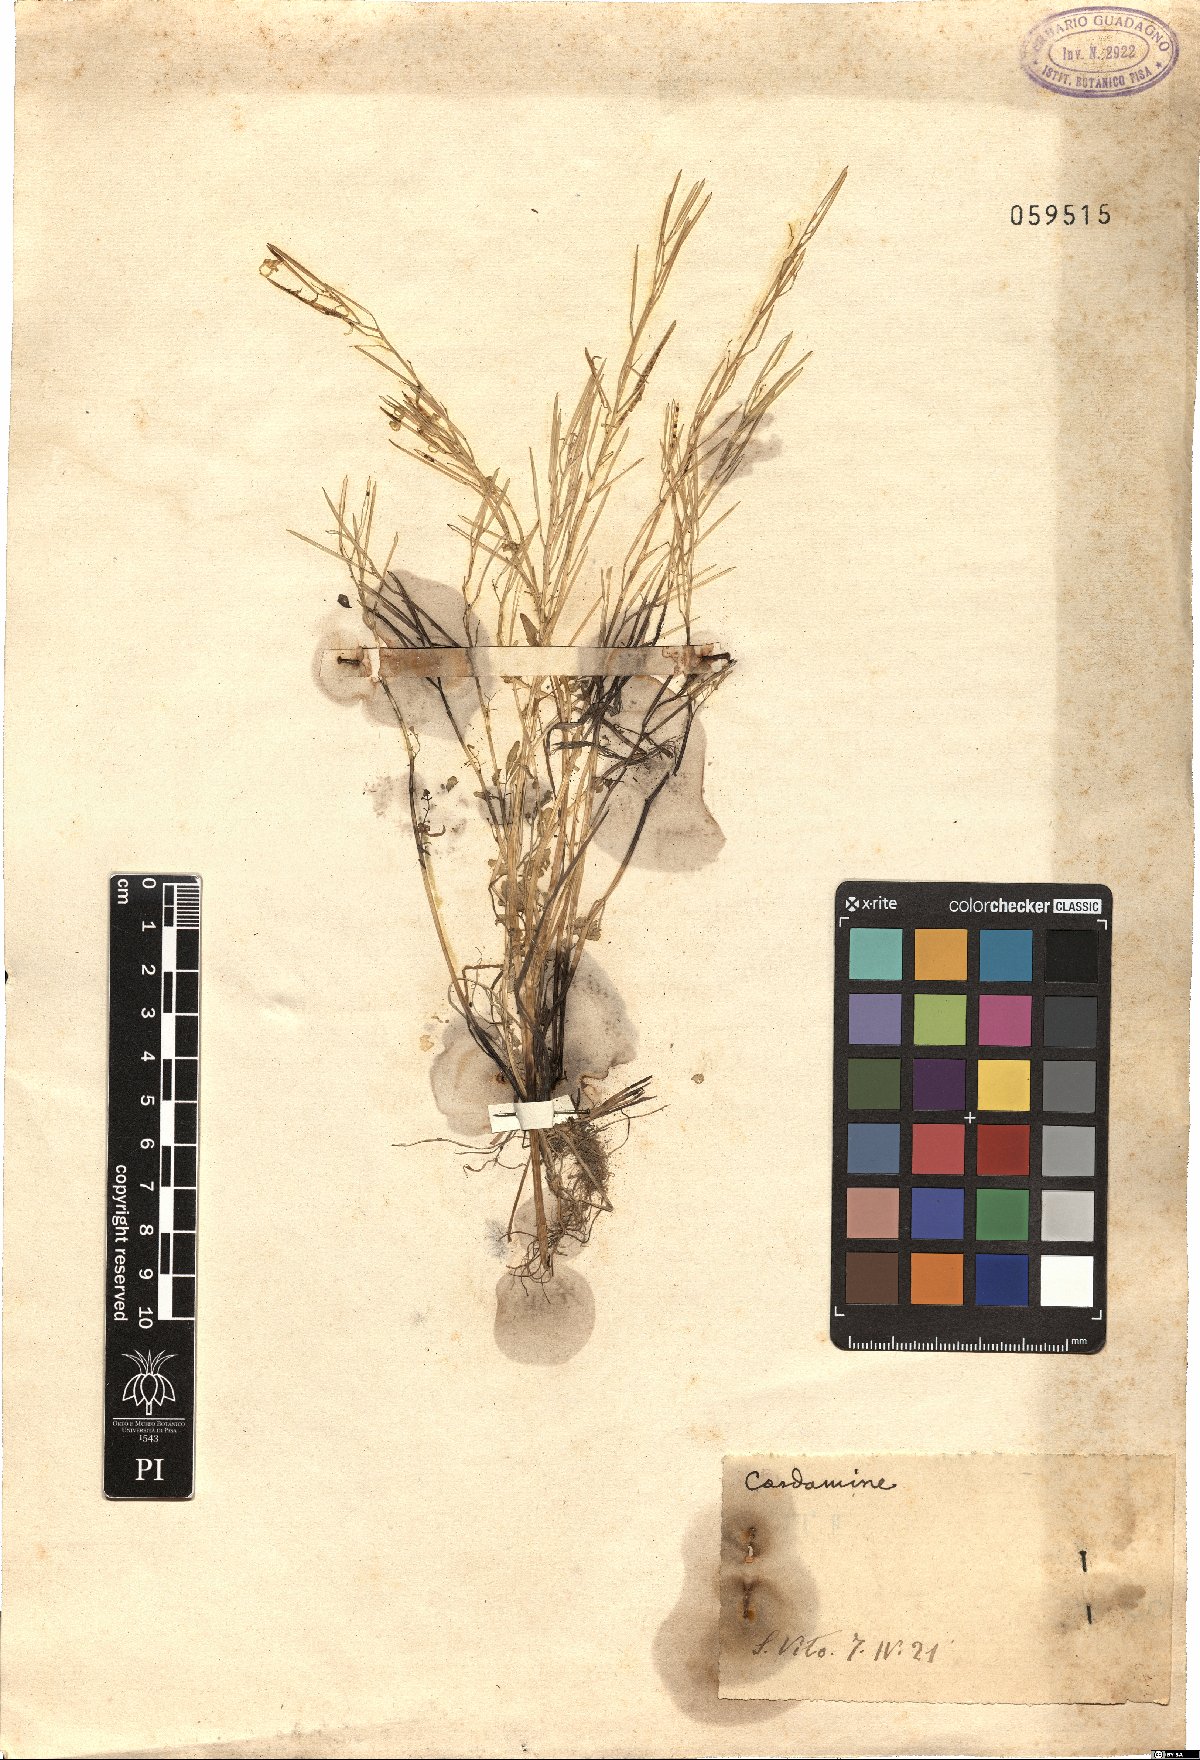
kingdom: Plantae
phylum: Tracheophyta
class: Magnoliopsida
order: Brassicales
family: Brassicaceae
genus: Cardamine
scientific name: Cardamine
